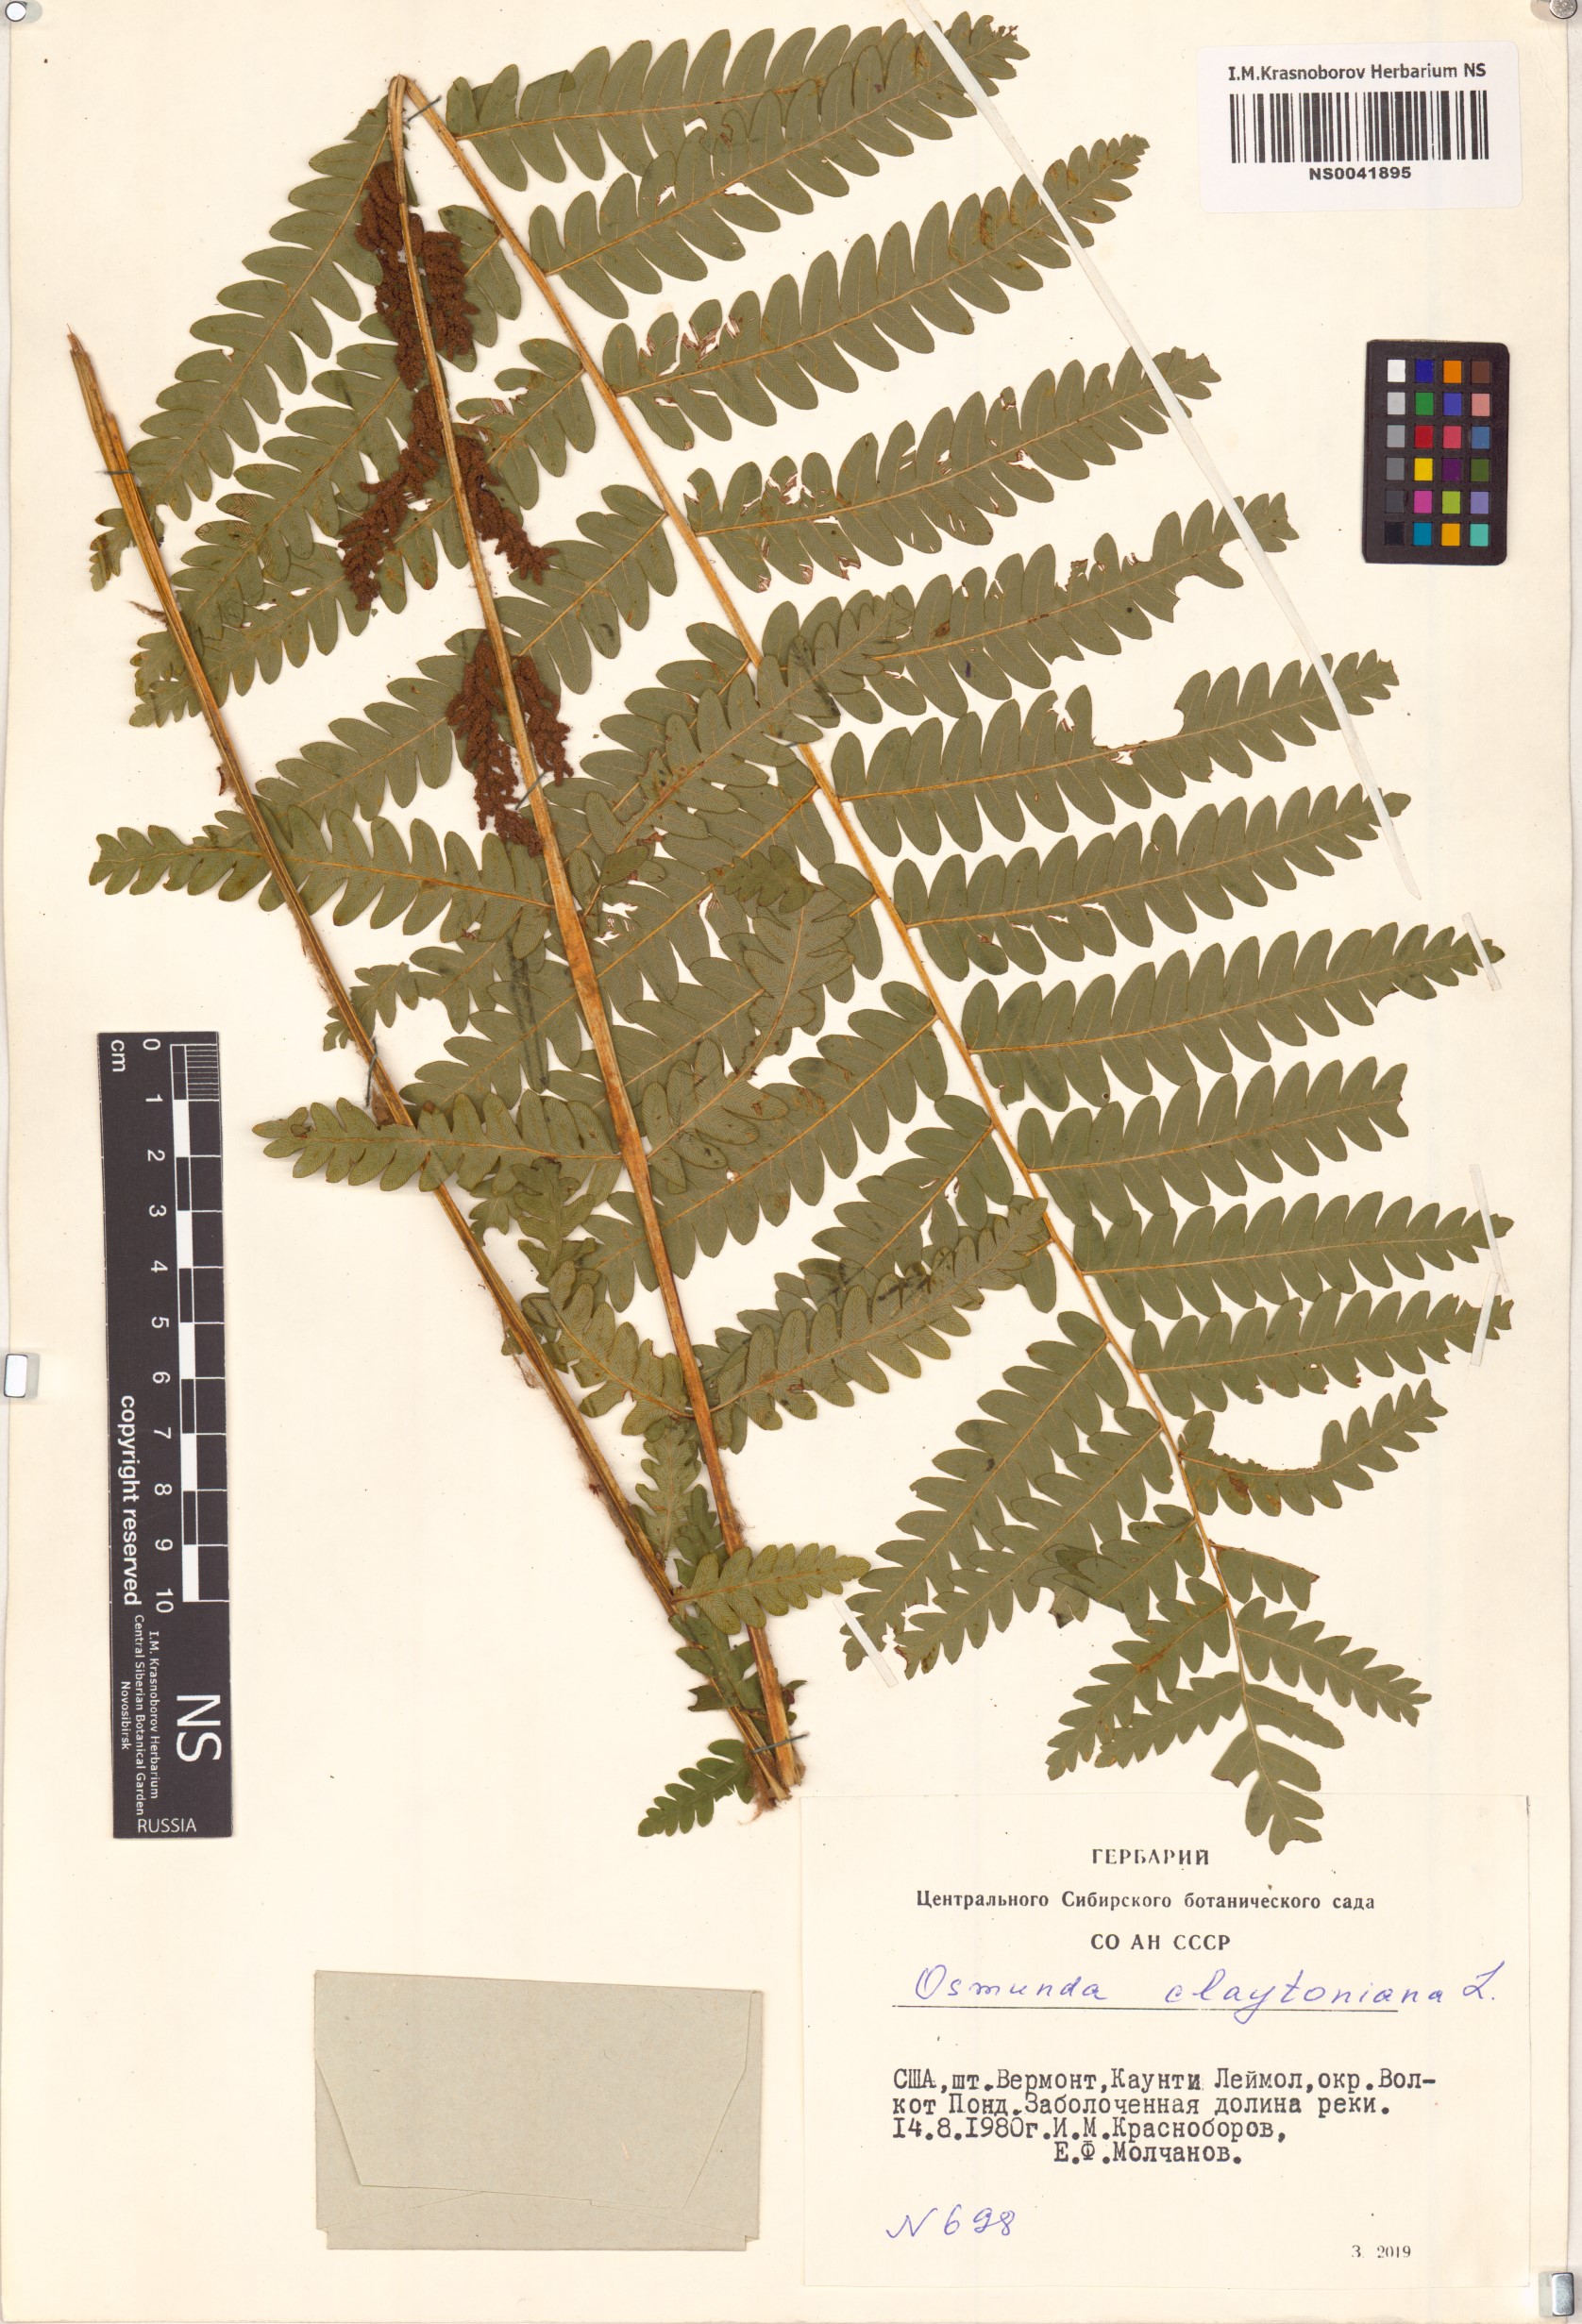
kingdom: Plantae
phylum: Tracheophyta
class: Polypodiopsida
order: Osmundales
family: Osmundaceae
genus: Claytosmunda
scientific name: Claytosmunda claytoniana
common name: Clayton's fern
